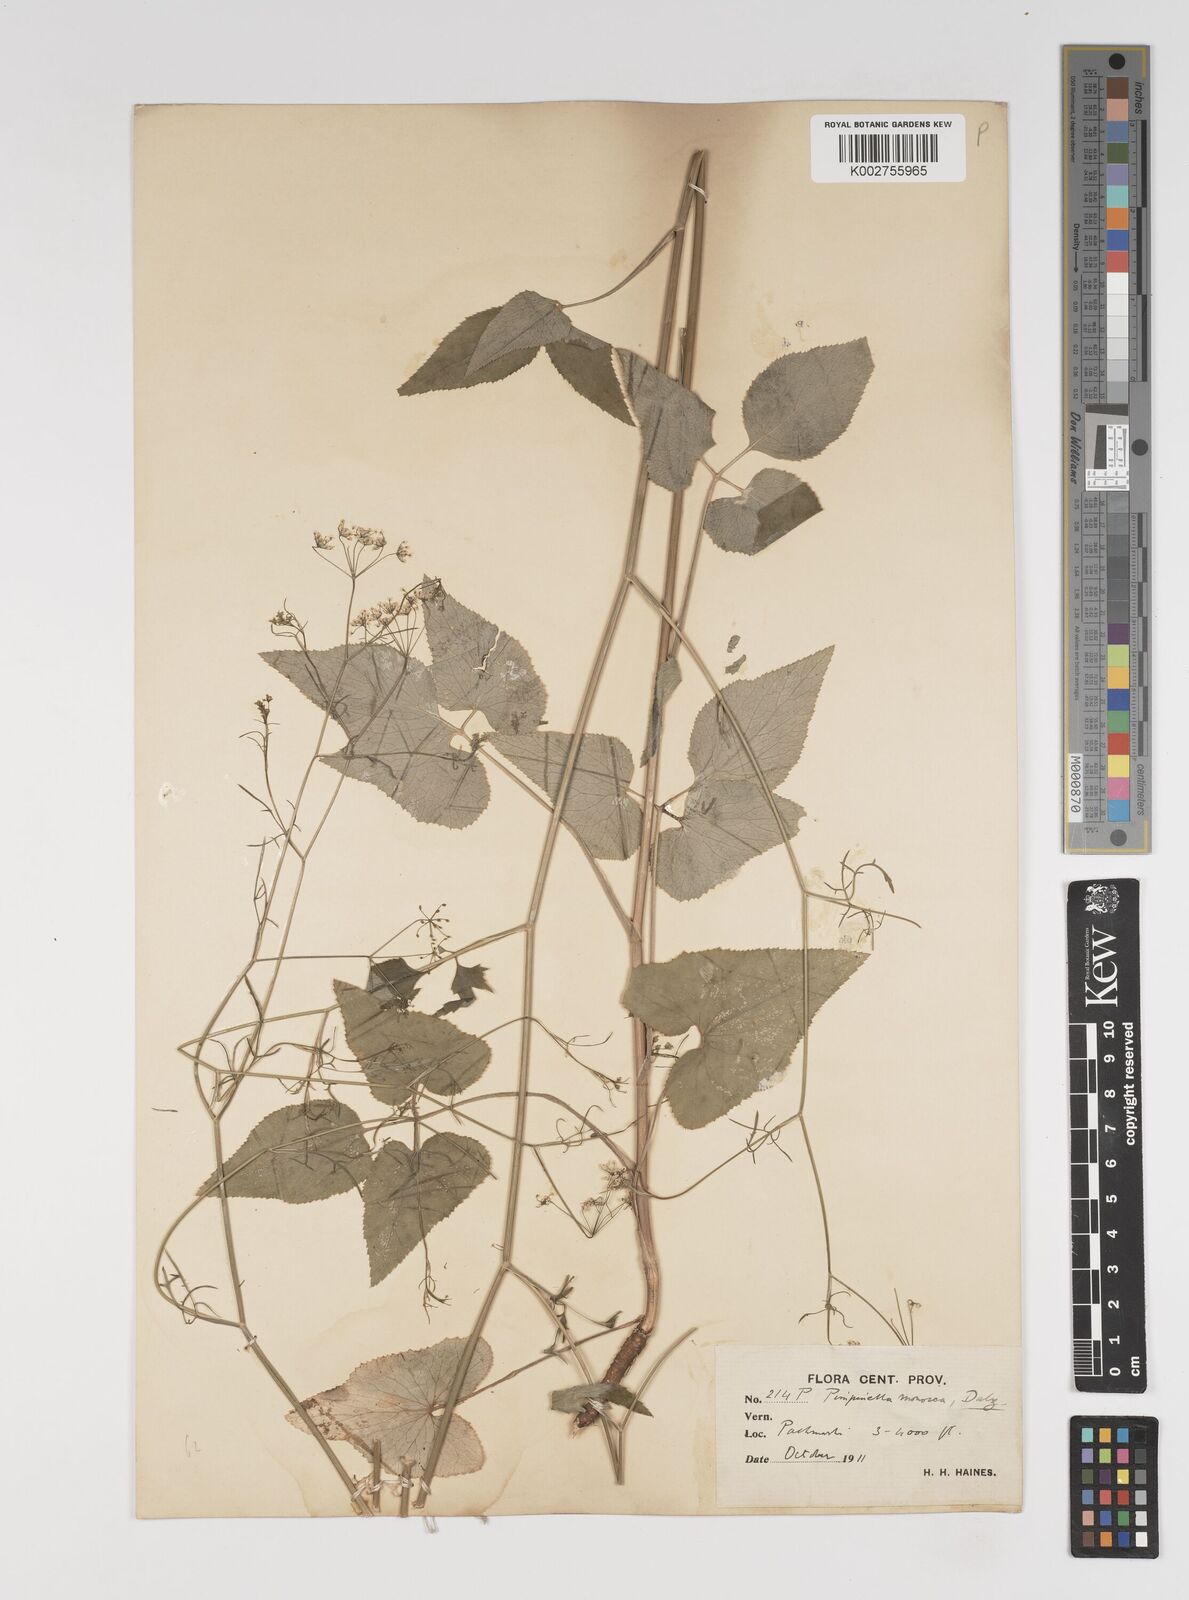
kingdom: Plantae
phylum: Tracheophyta
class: Magnoliopsida
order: Apiales
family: Apiaceae
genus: Pimpinella
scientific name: Pimpinella wallichiana
